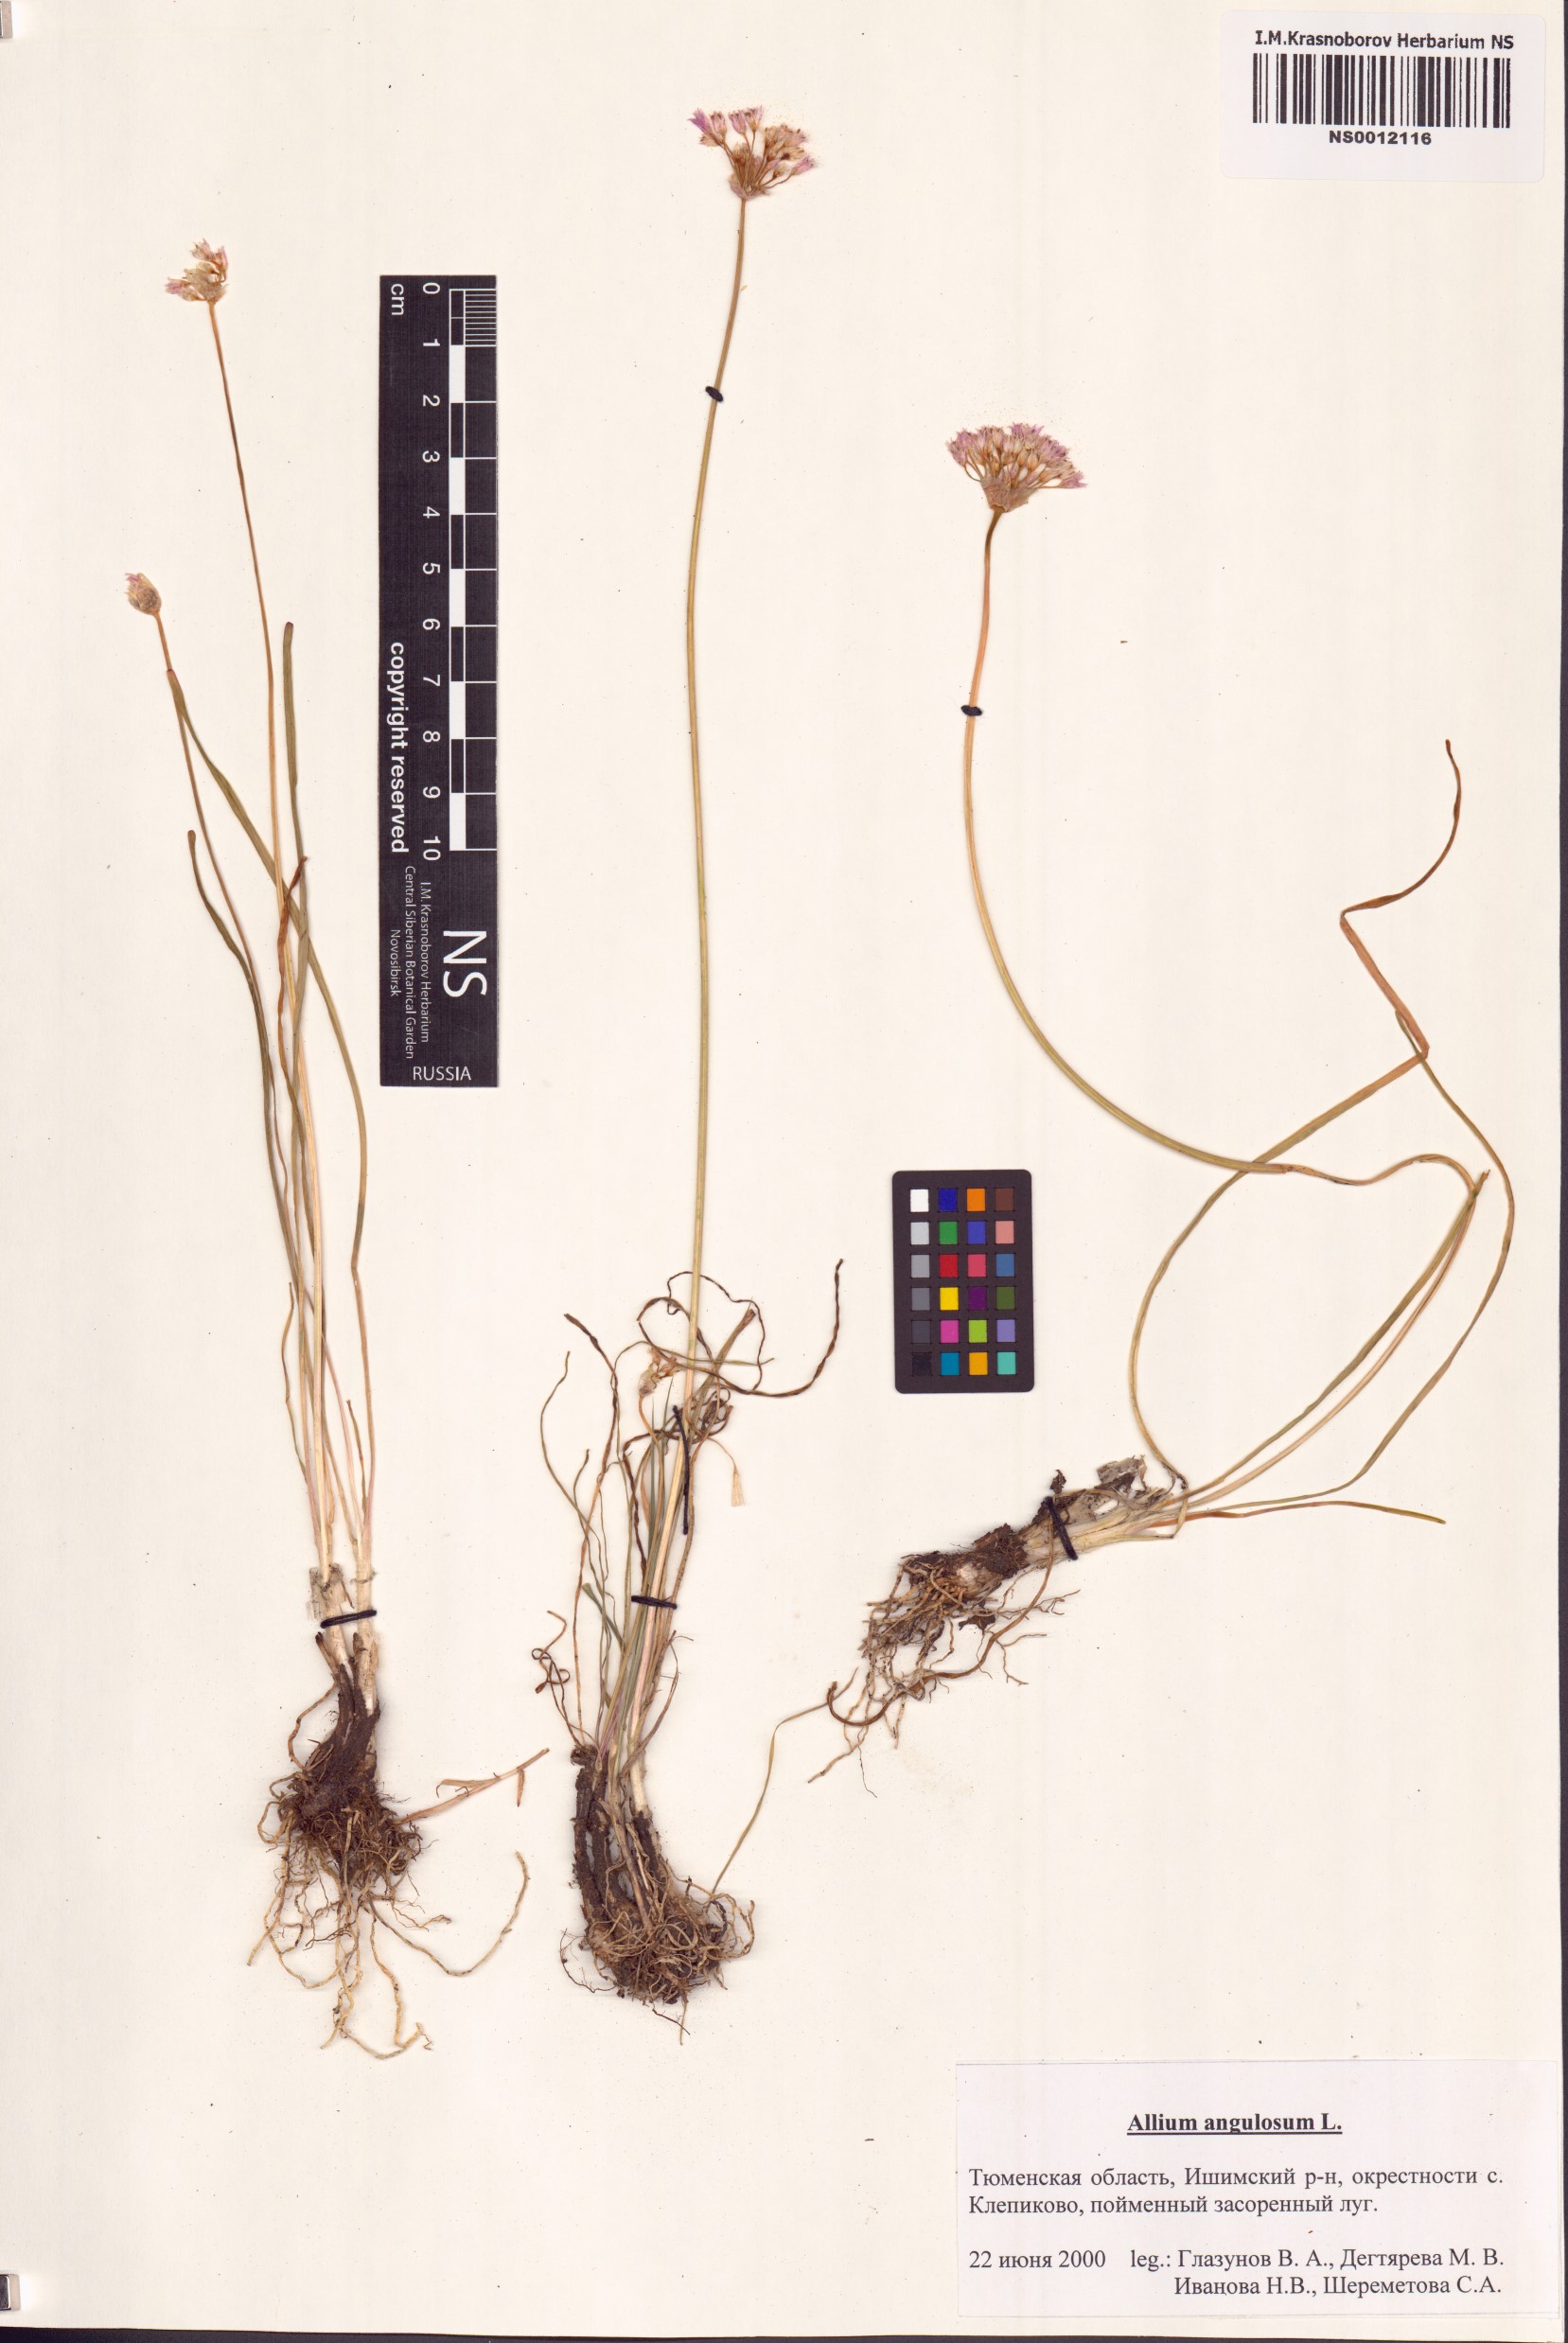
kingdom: Plantae
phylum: Tracheophyta
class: Liliopsida
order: Asparagales
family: Amaryllidaceae
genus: Allium
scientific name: Allium angulosum
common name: Mouse garlic
